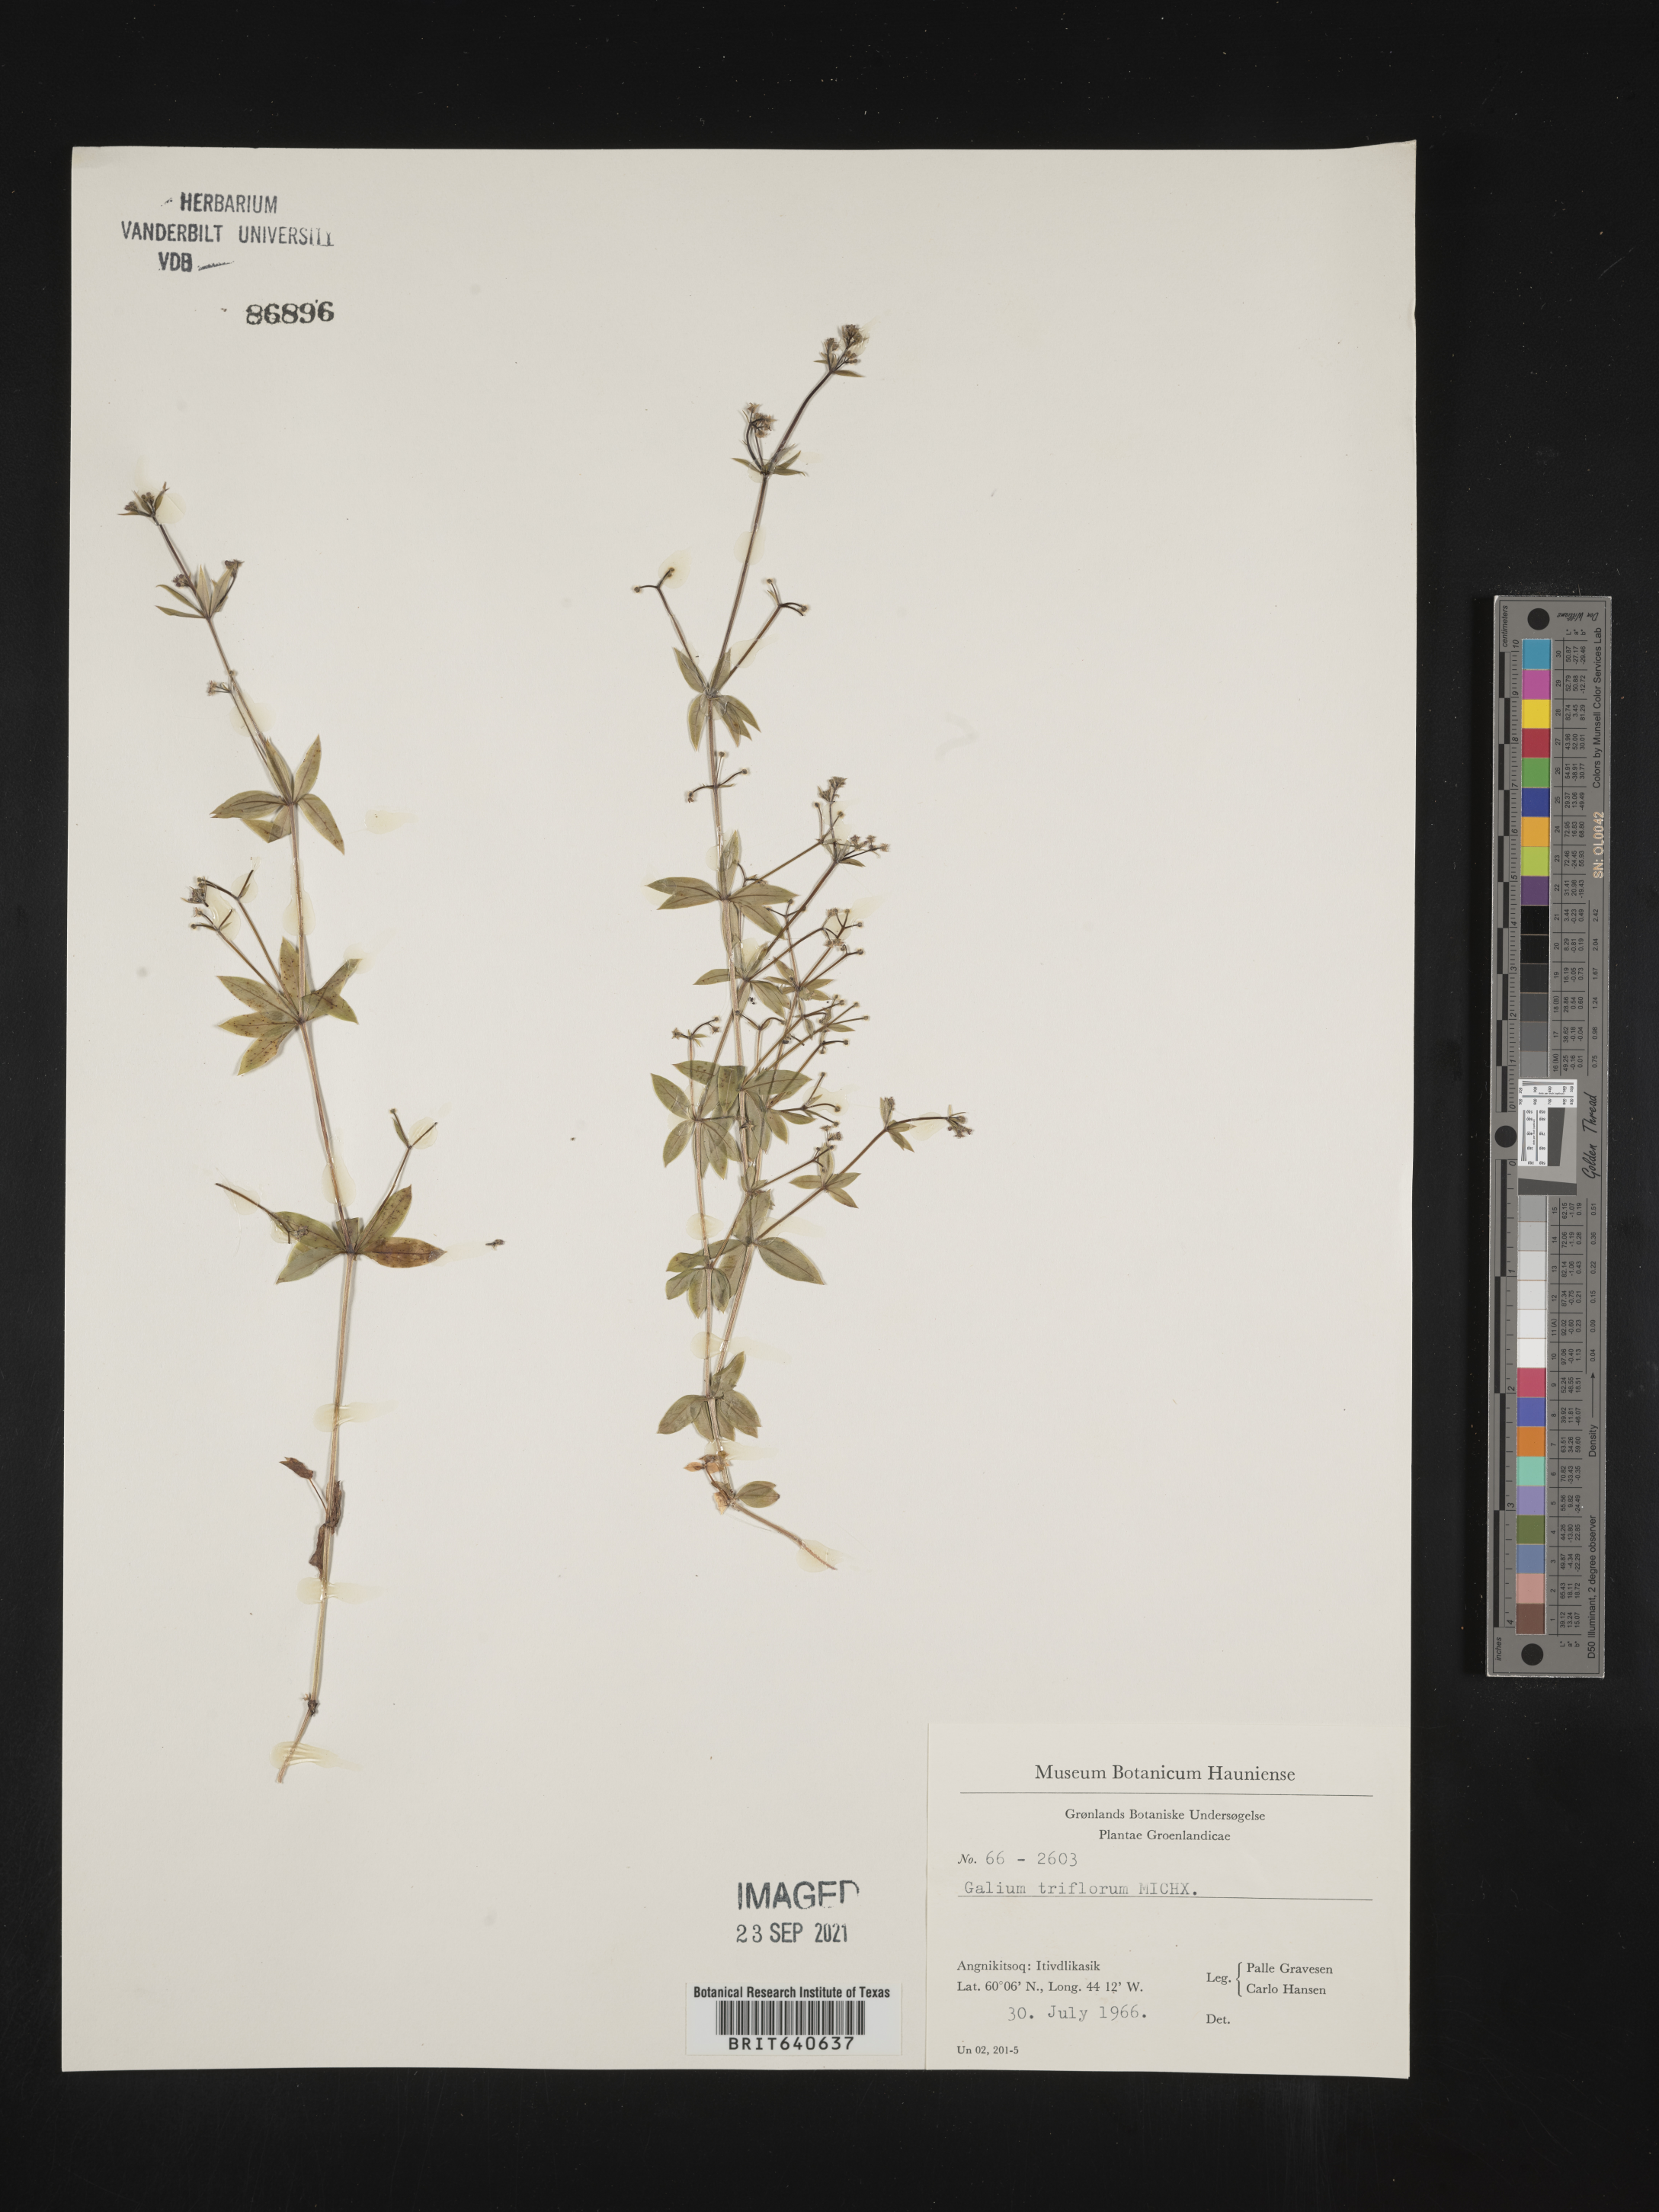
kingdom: Plantae
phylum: Tracheophyta
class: Magnoliopsida
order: Gentianales
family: Rubiaceae
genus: Galium
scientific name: Galium
